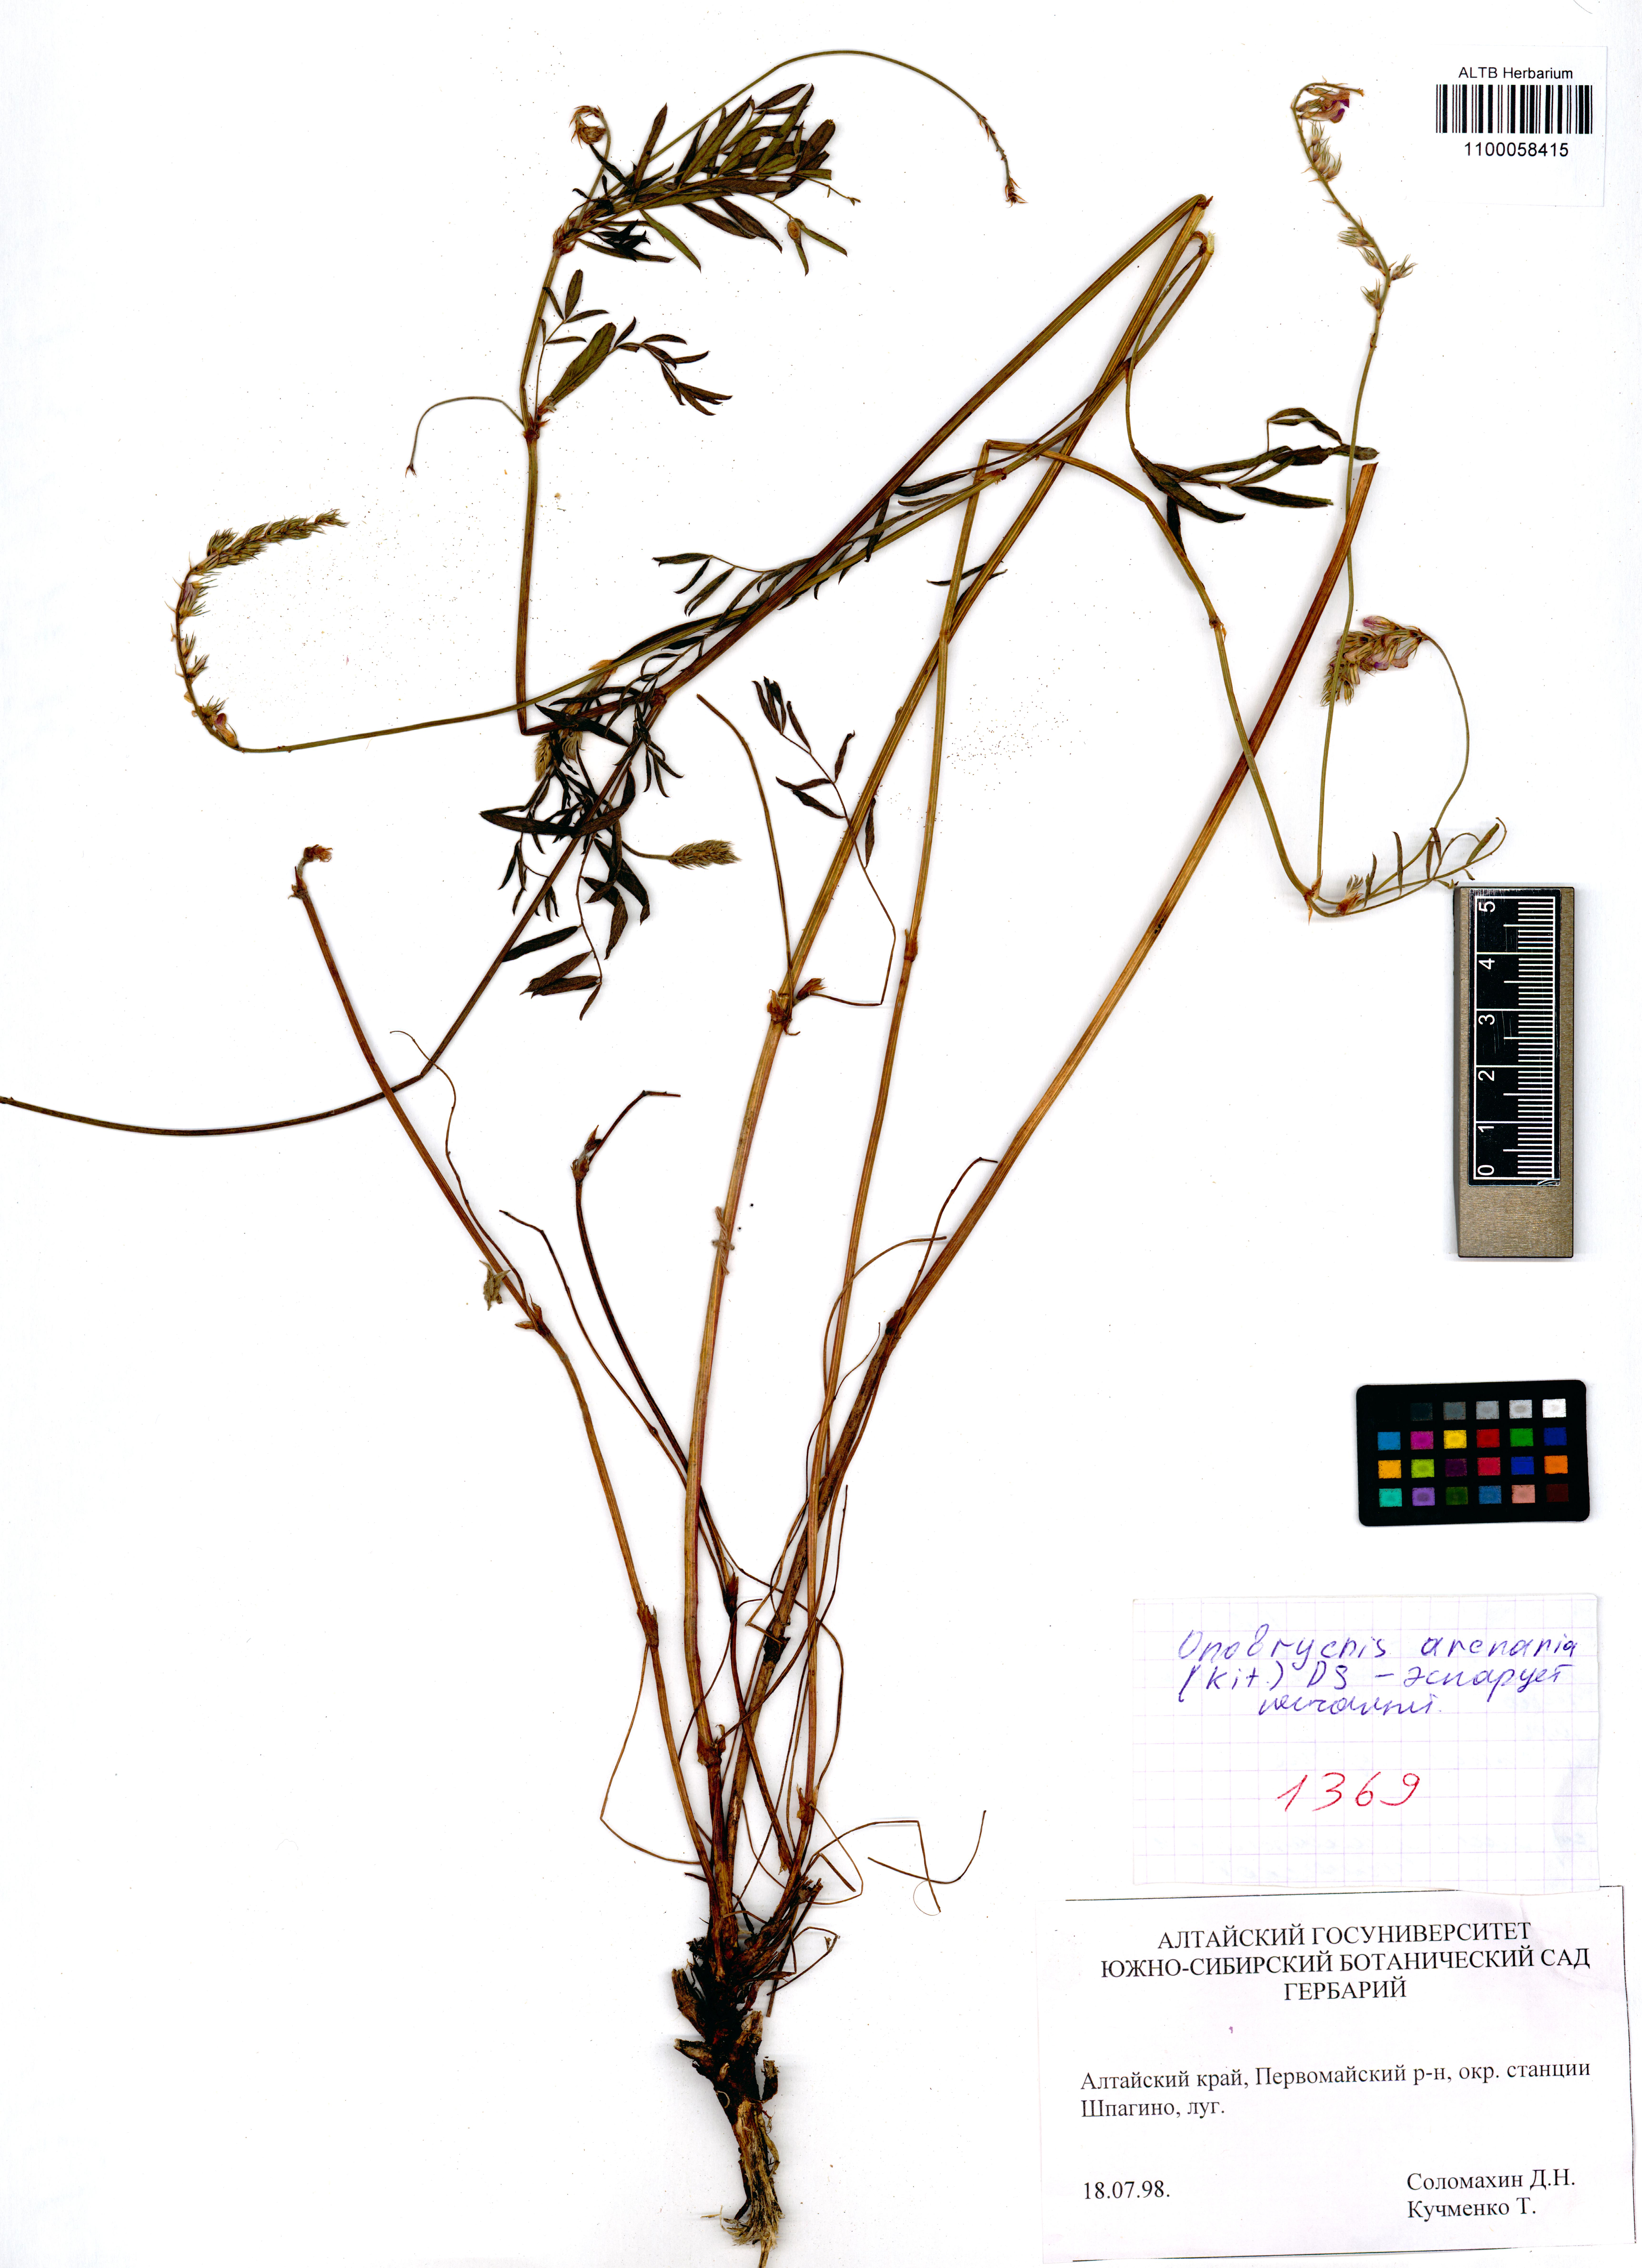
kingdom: Plantae
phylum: Tracheophyta
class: Magnoliopsida
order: Fabales
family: Fabaceae
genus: Onobrychis
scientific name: Onobrychis arenaria
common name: Sand esparcet
